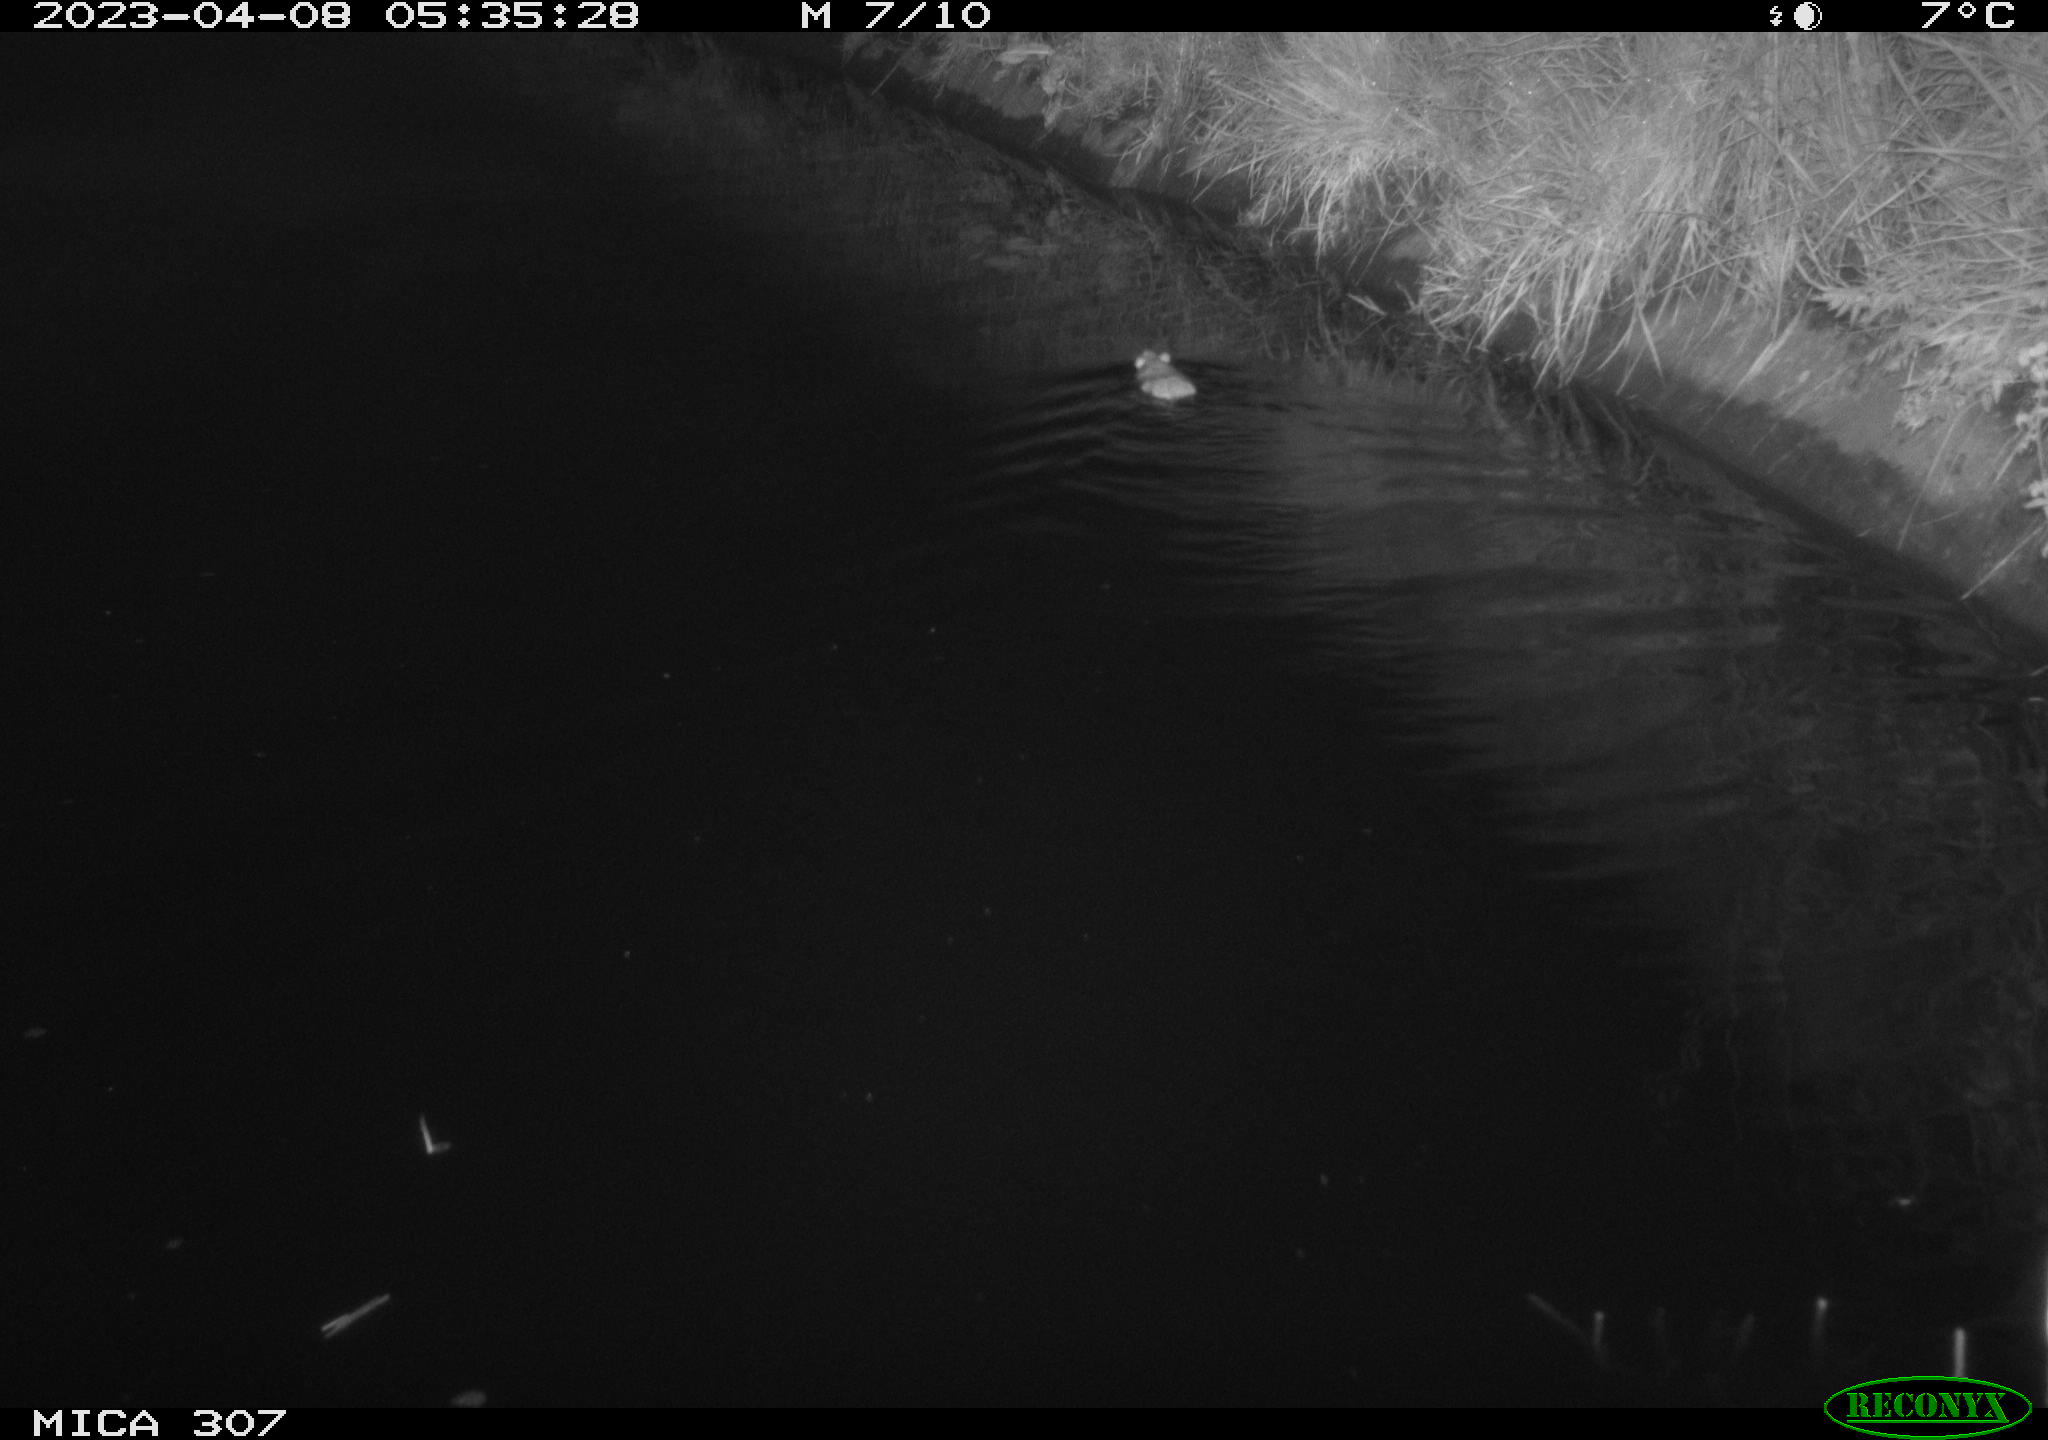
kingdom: Animalia
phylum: Chordata
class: Mammalia
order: Rodentia
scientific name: Rodentia
